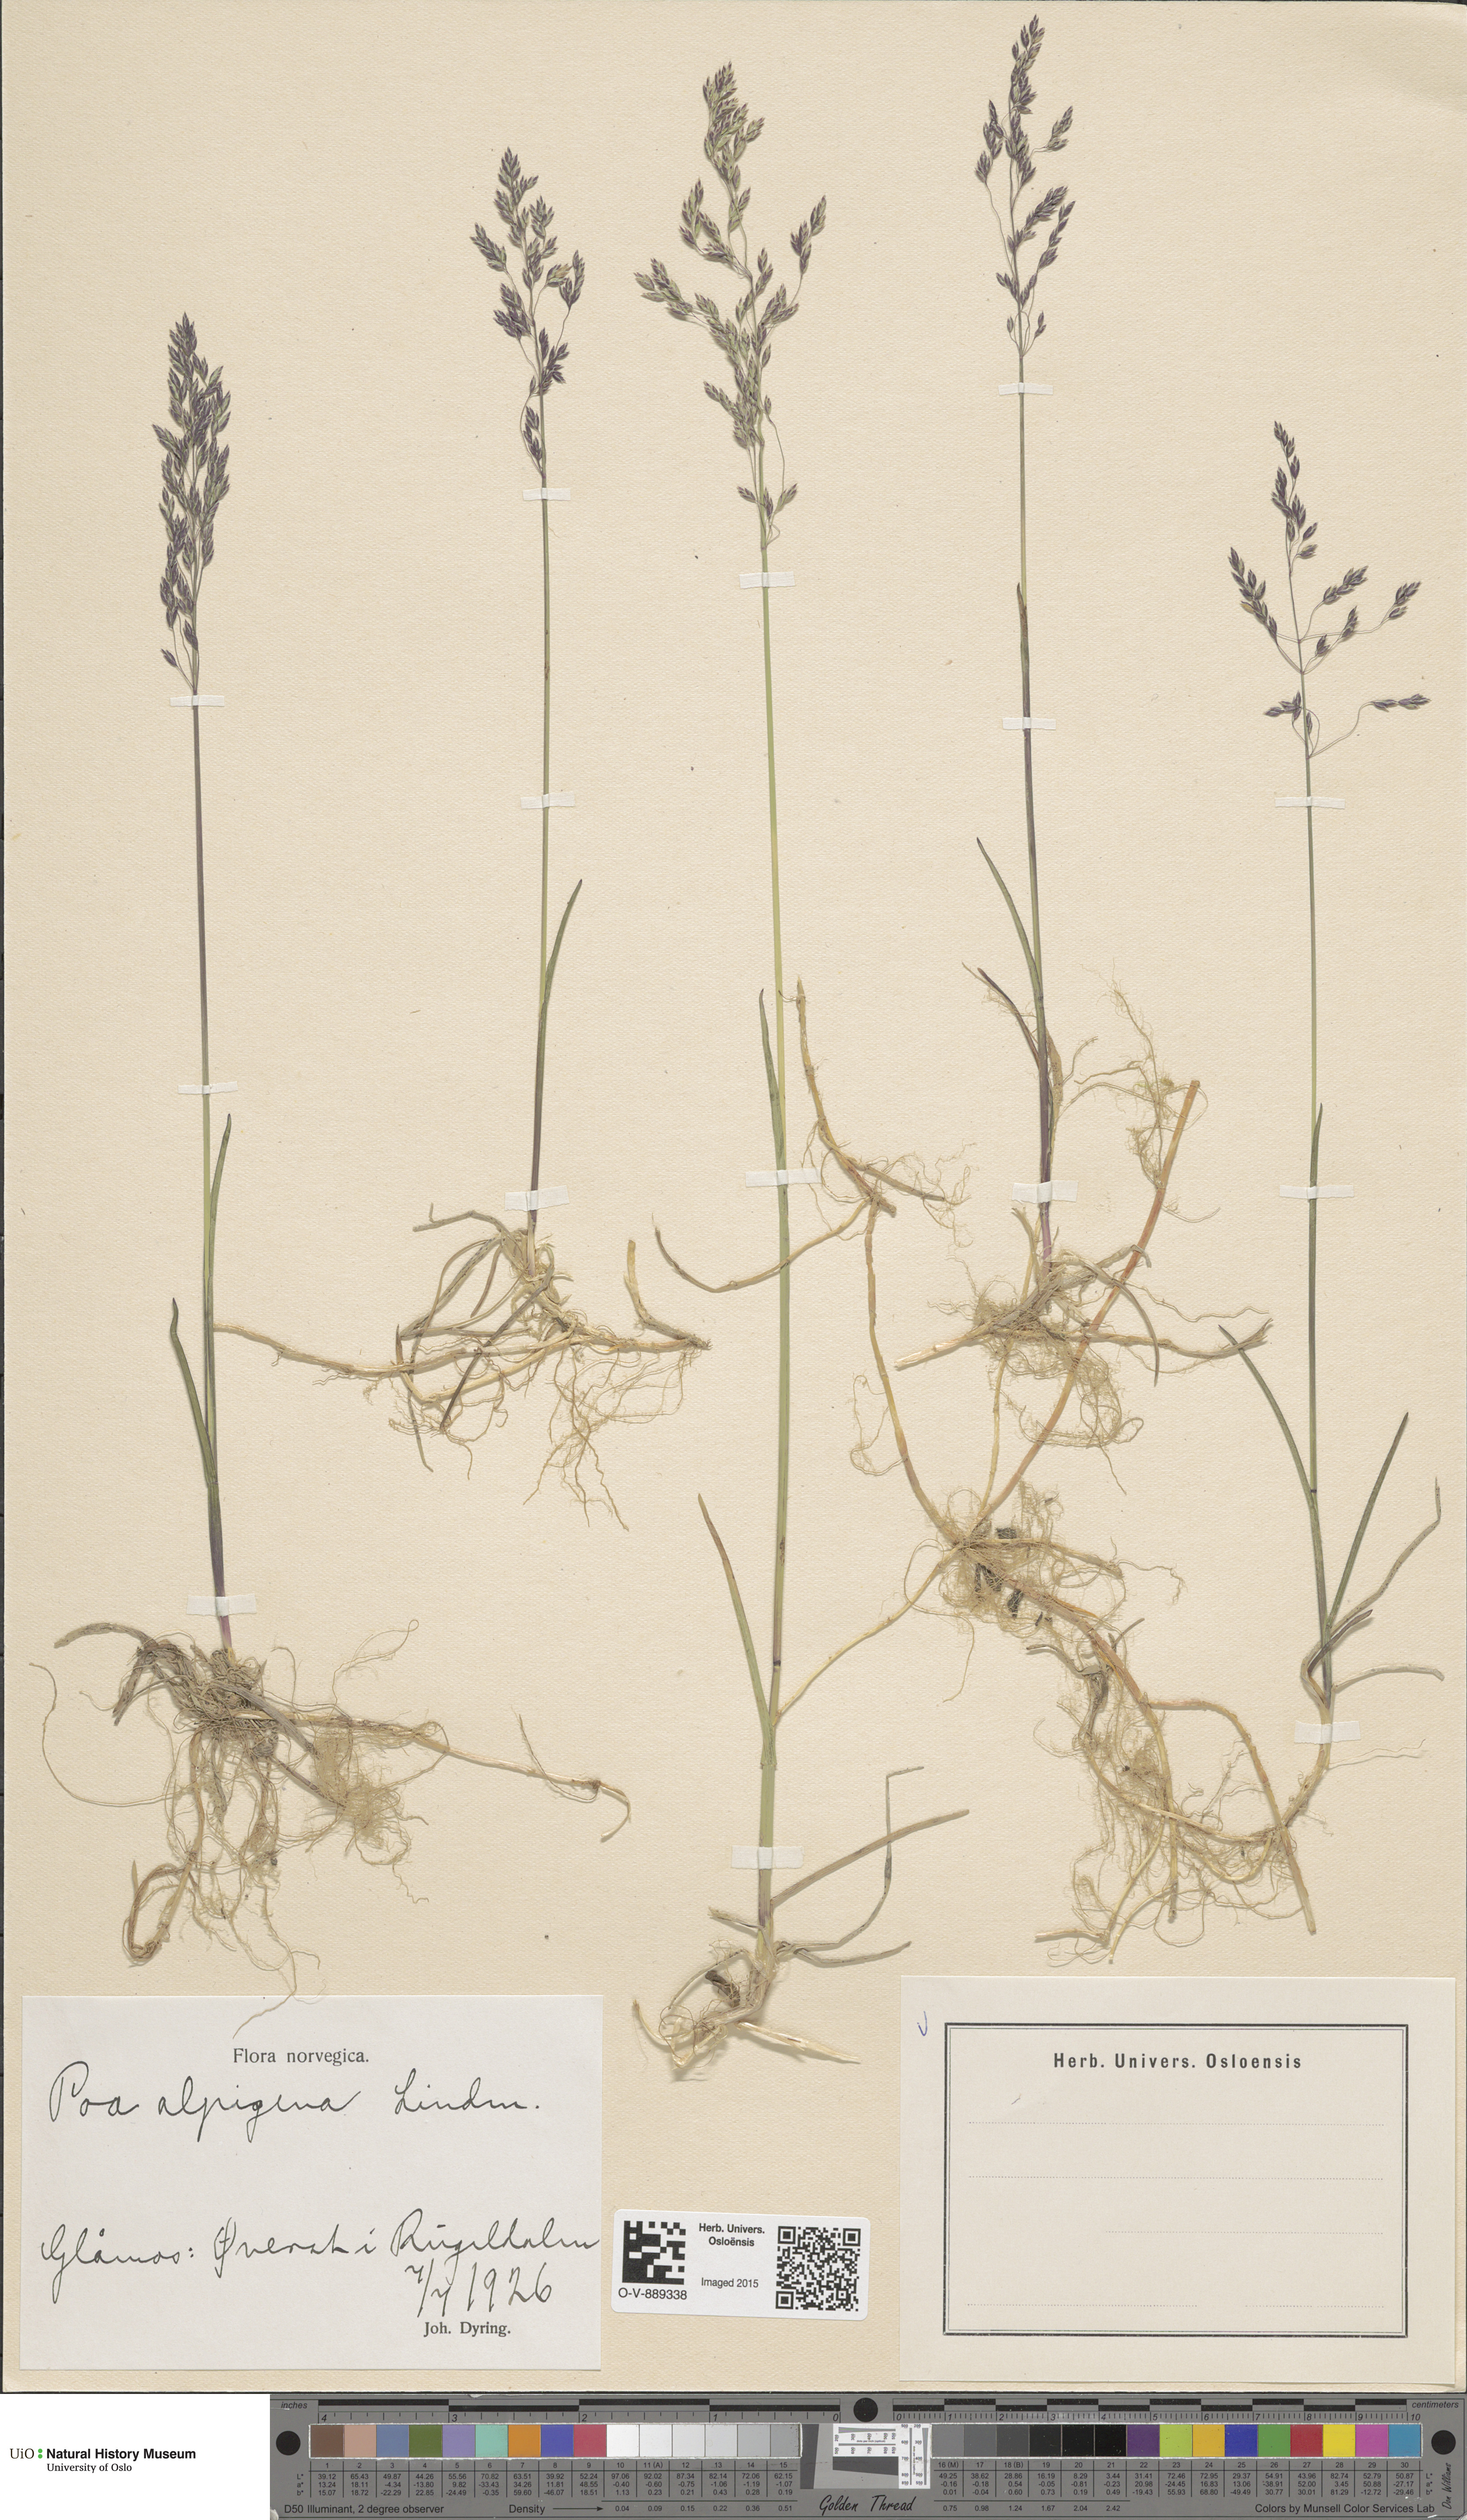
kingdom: Plantae
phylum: Tracheophyta
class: Liliopsida
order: Poales
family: Poaceae
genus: Poa
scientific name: Poa alpigena
